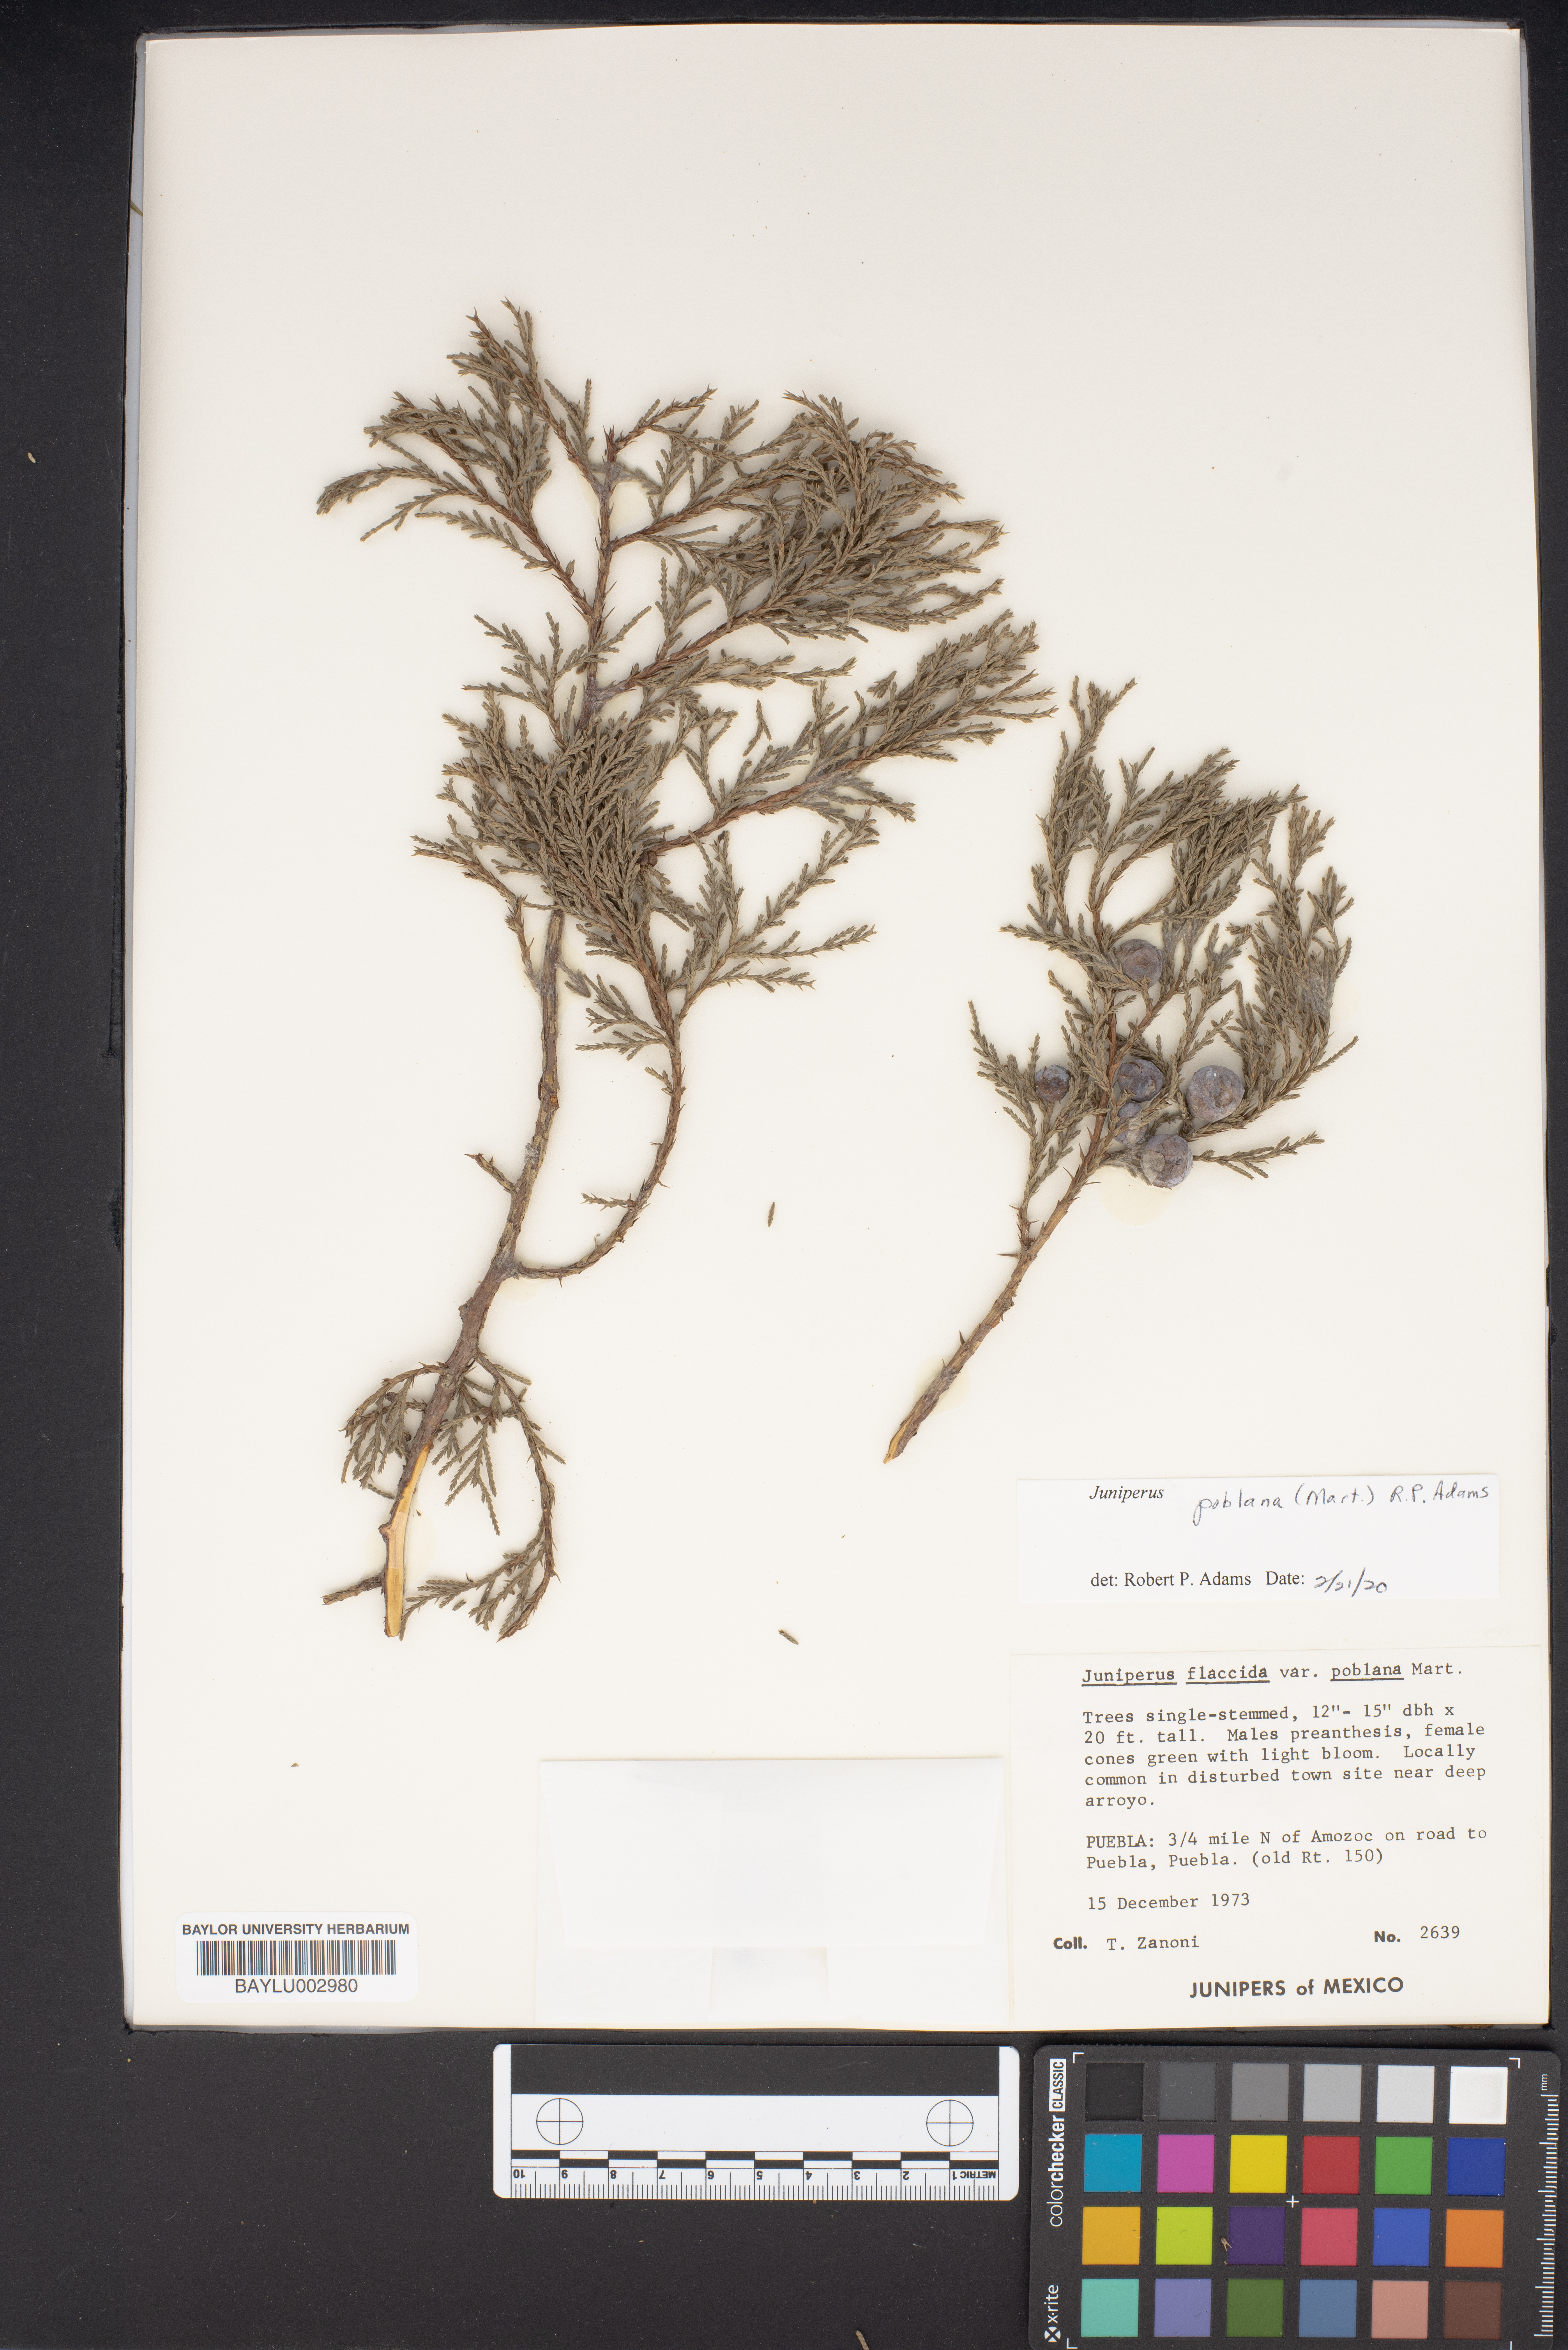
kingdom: Plantae
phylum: Tracheophyta
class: Pinopsida
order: Pinales
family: Cupressaceae
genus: Juniperus
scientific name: Juniperus flaccida
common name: Drooping juniper
